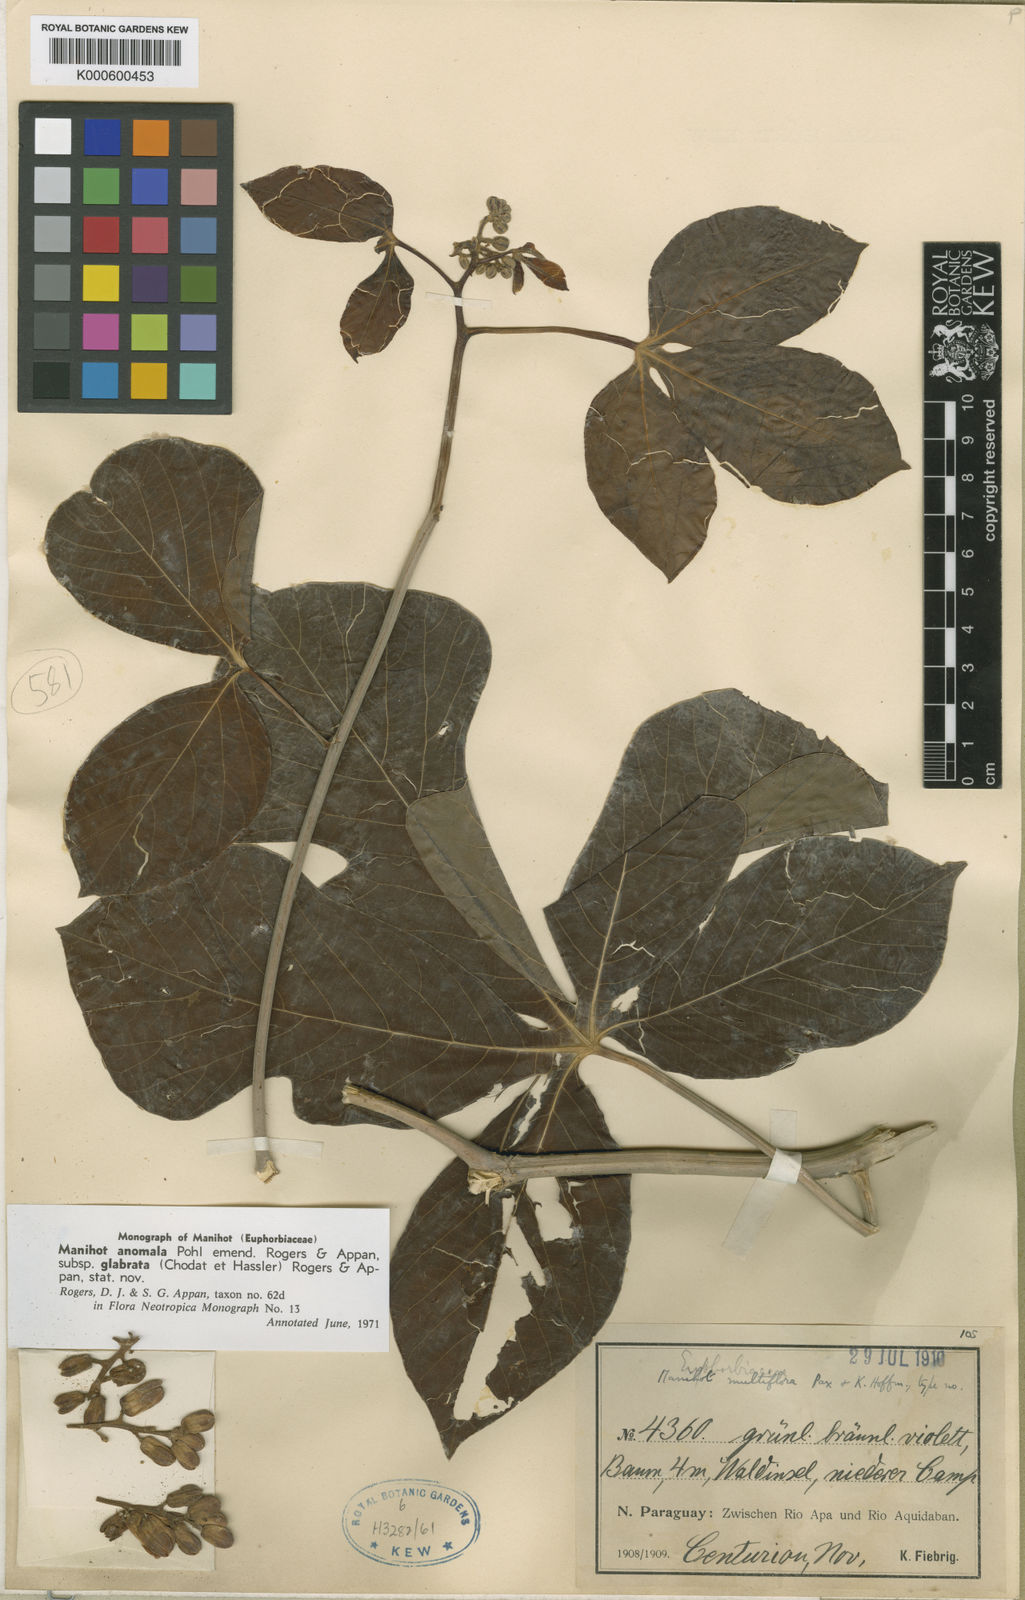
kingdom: Plantae
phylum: Tracheophyta
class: Magnoliopsida
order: Malpighiales
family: Euphorbiaceae
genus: Manihot
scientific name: Manihot anomala
